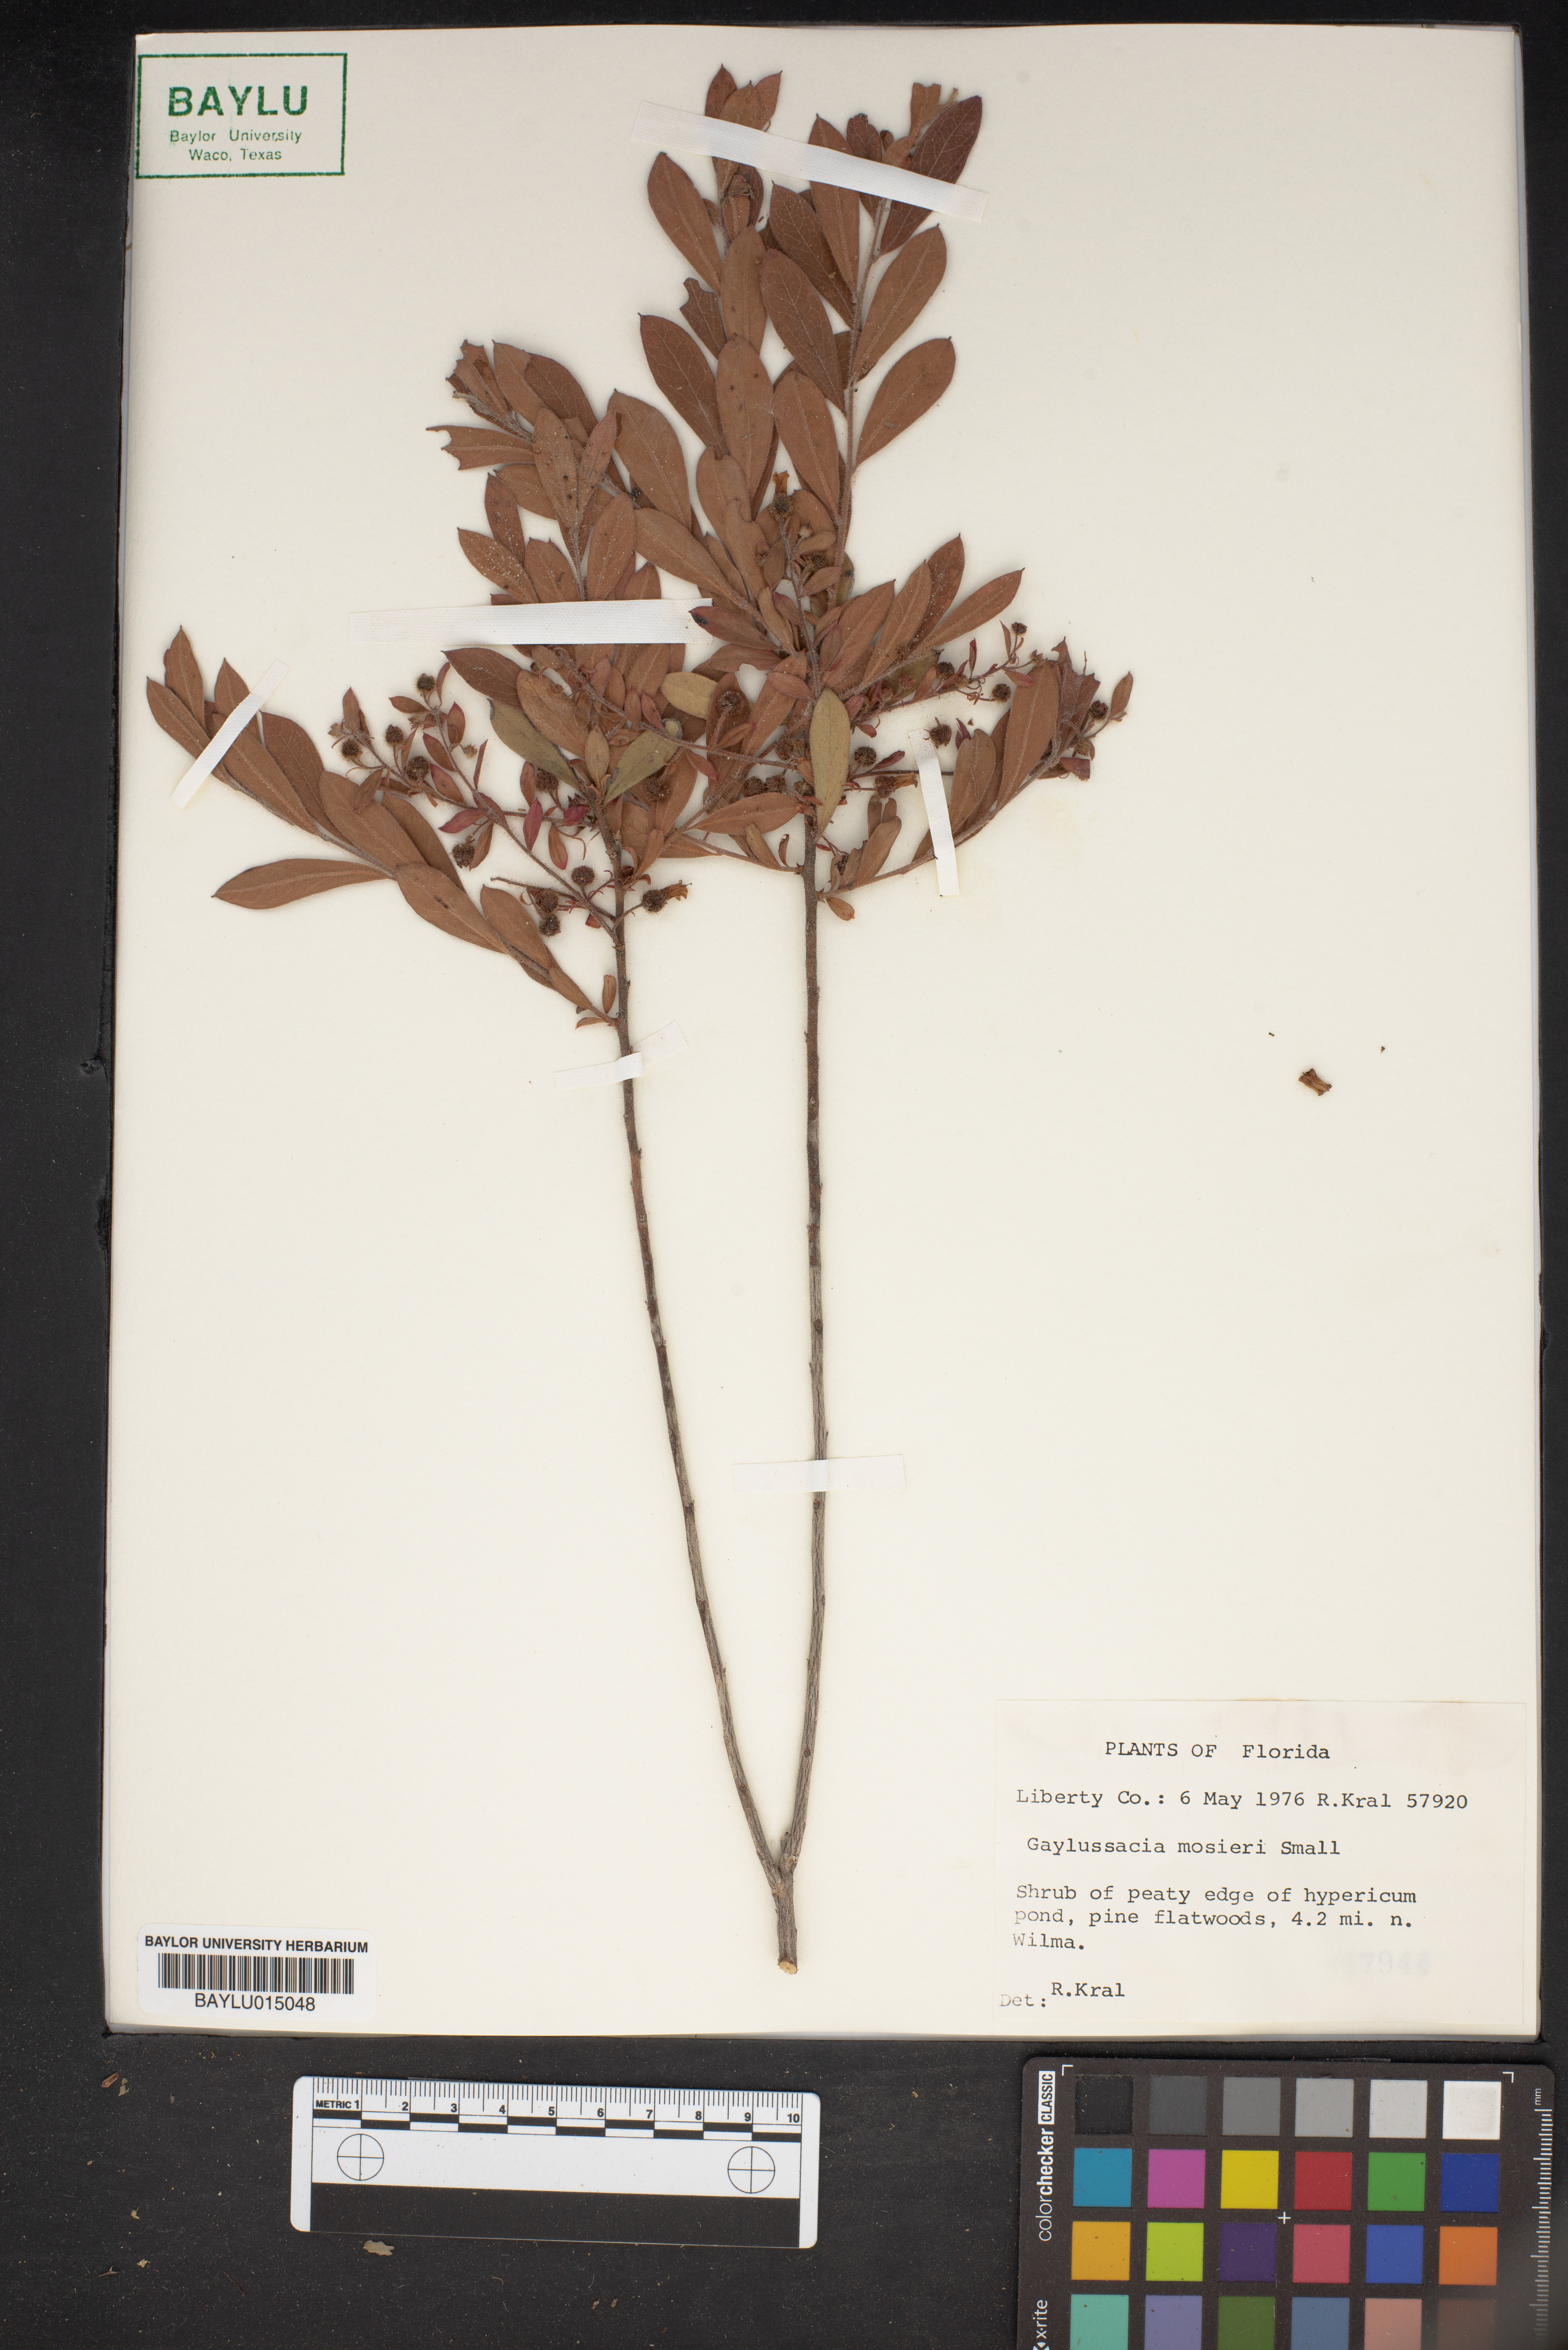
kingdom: Plantae
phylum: Tracheophyta
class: Magnoliopsida
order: Ericales
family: Ericaceae
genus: Gaylussacia
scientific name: Gaylussacia mosieri
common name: Hirsute huckleberry
